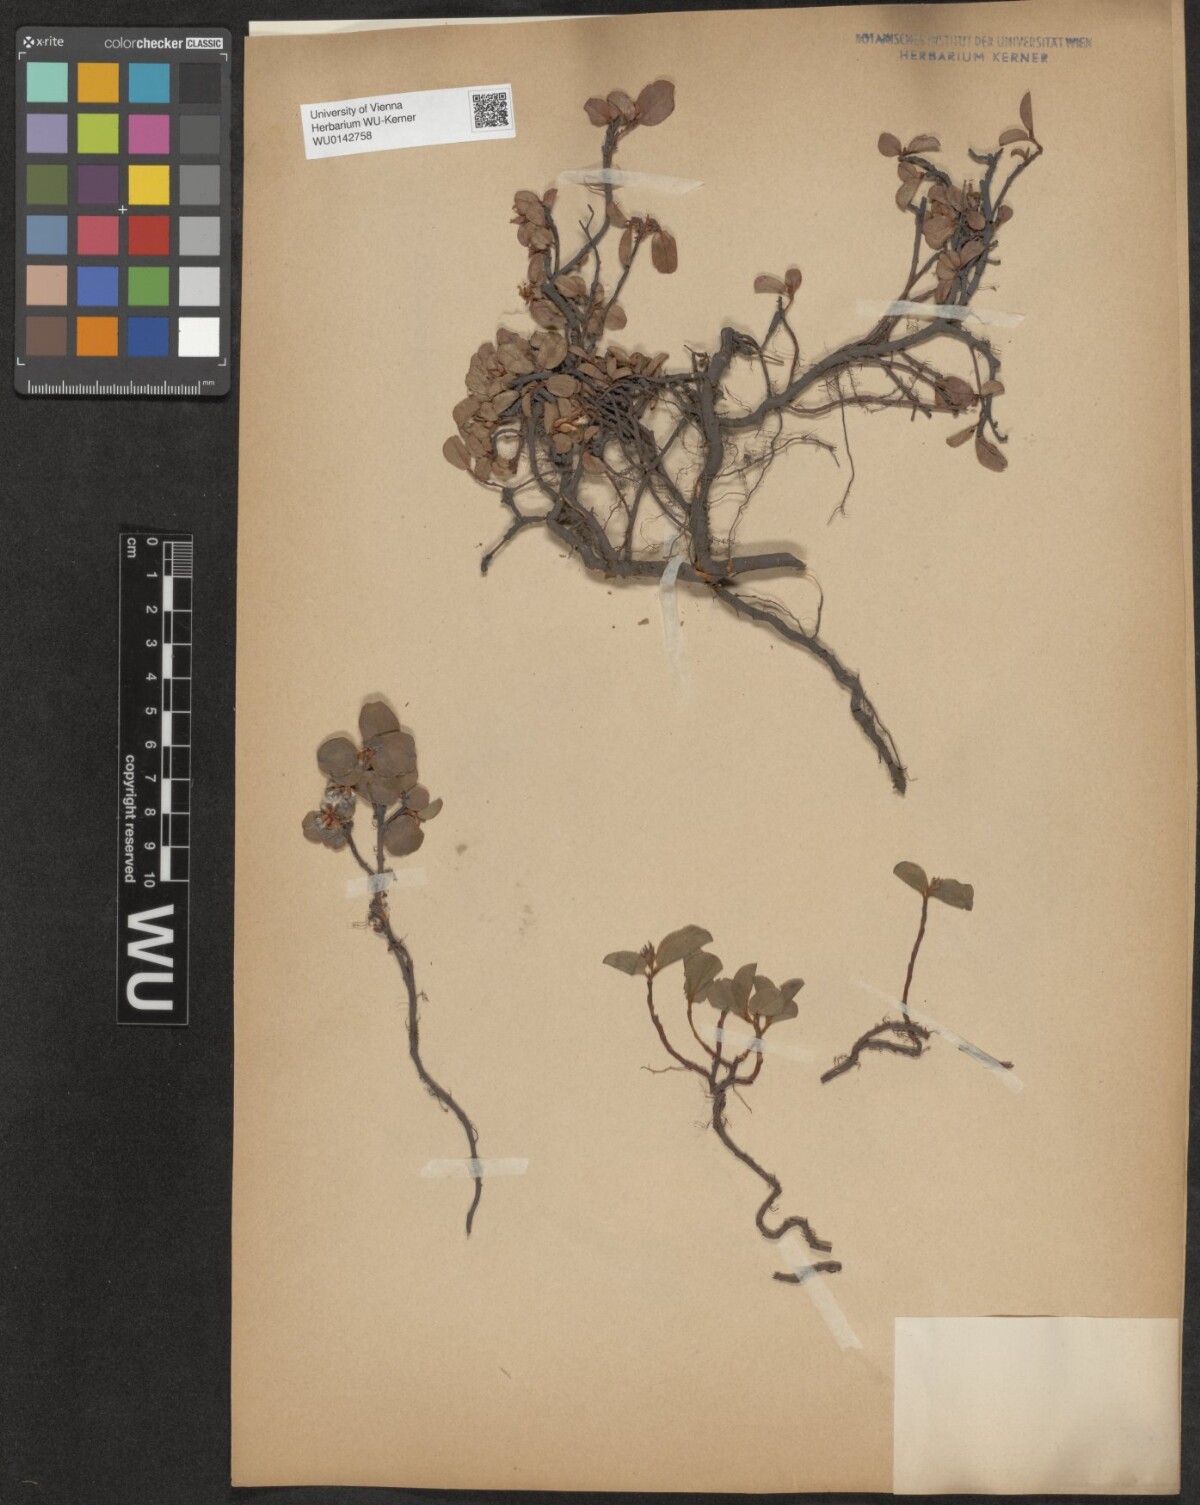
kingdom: Plantae
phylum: Tracheophyta
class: Magnoliopsida
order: Malpighiales
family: Salicaceae
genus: Salix
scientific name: Salix herbacea
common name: Dwarf willow
